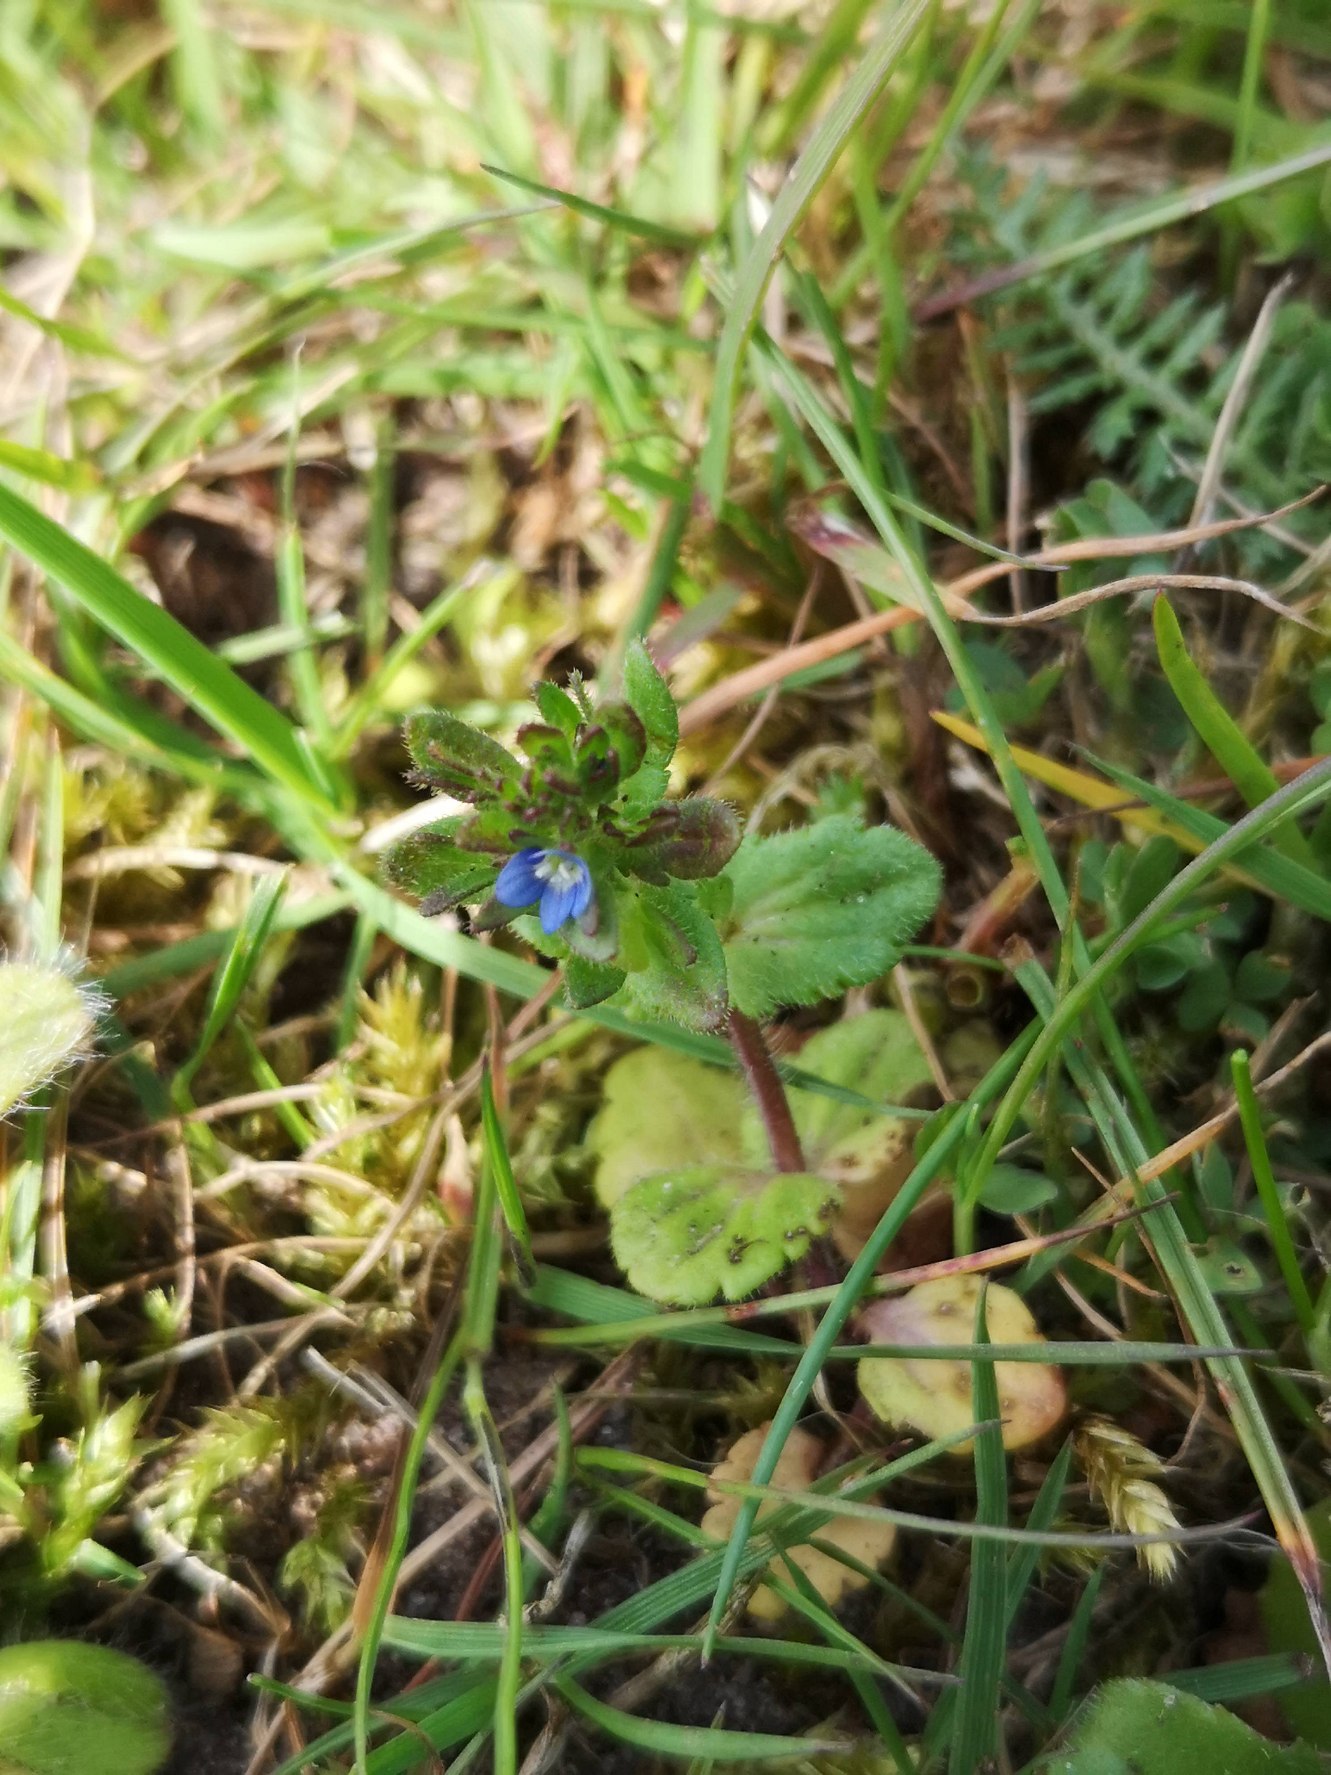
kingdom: Plantae
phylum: Tracheophyta
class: Magnoliopsida
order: Lamiales
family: Plantaginaceae
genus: Veronica
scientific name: Veronica arvensis
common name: Mark-ærenpris
